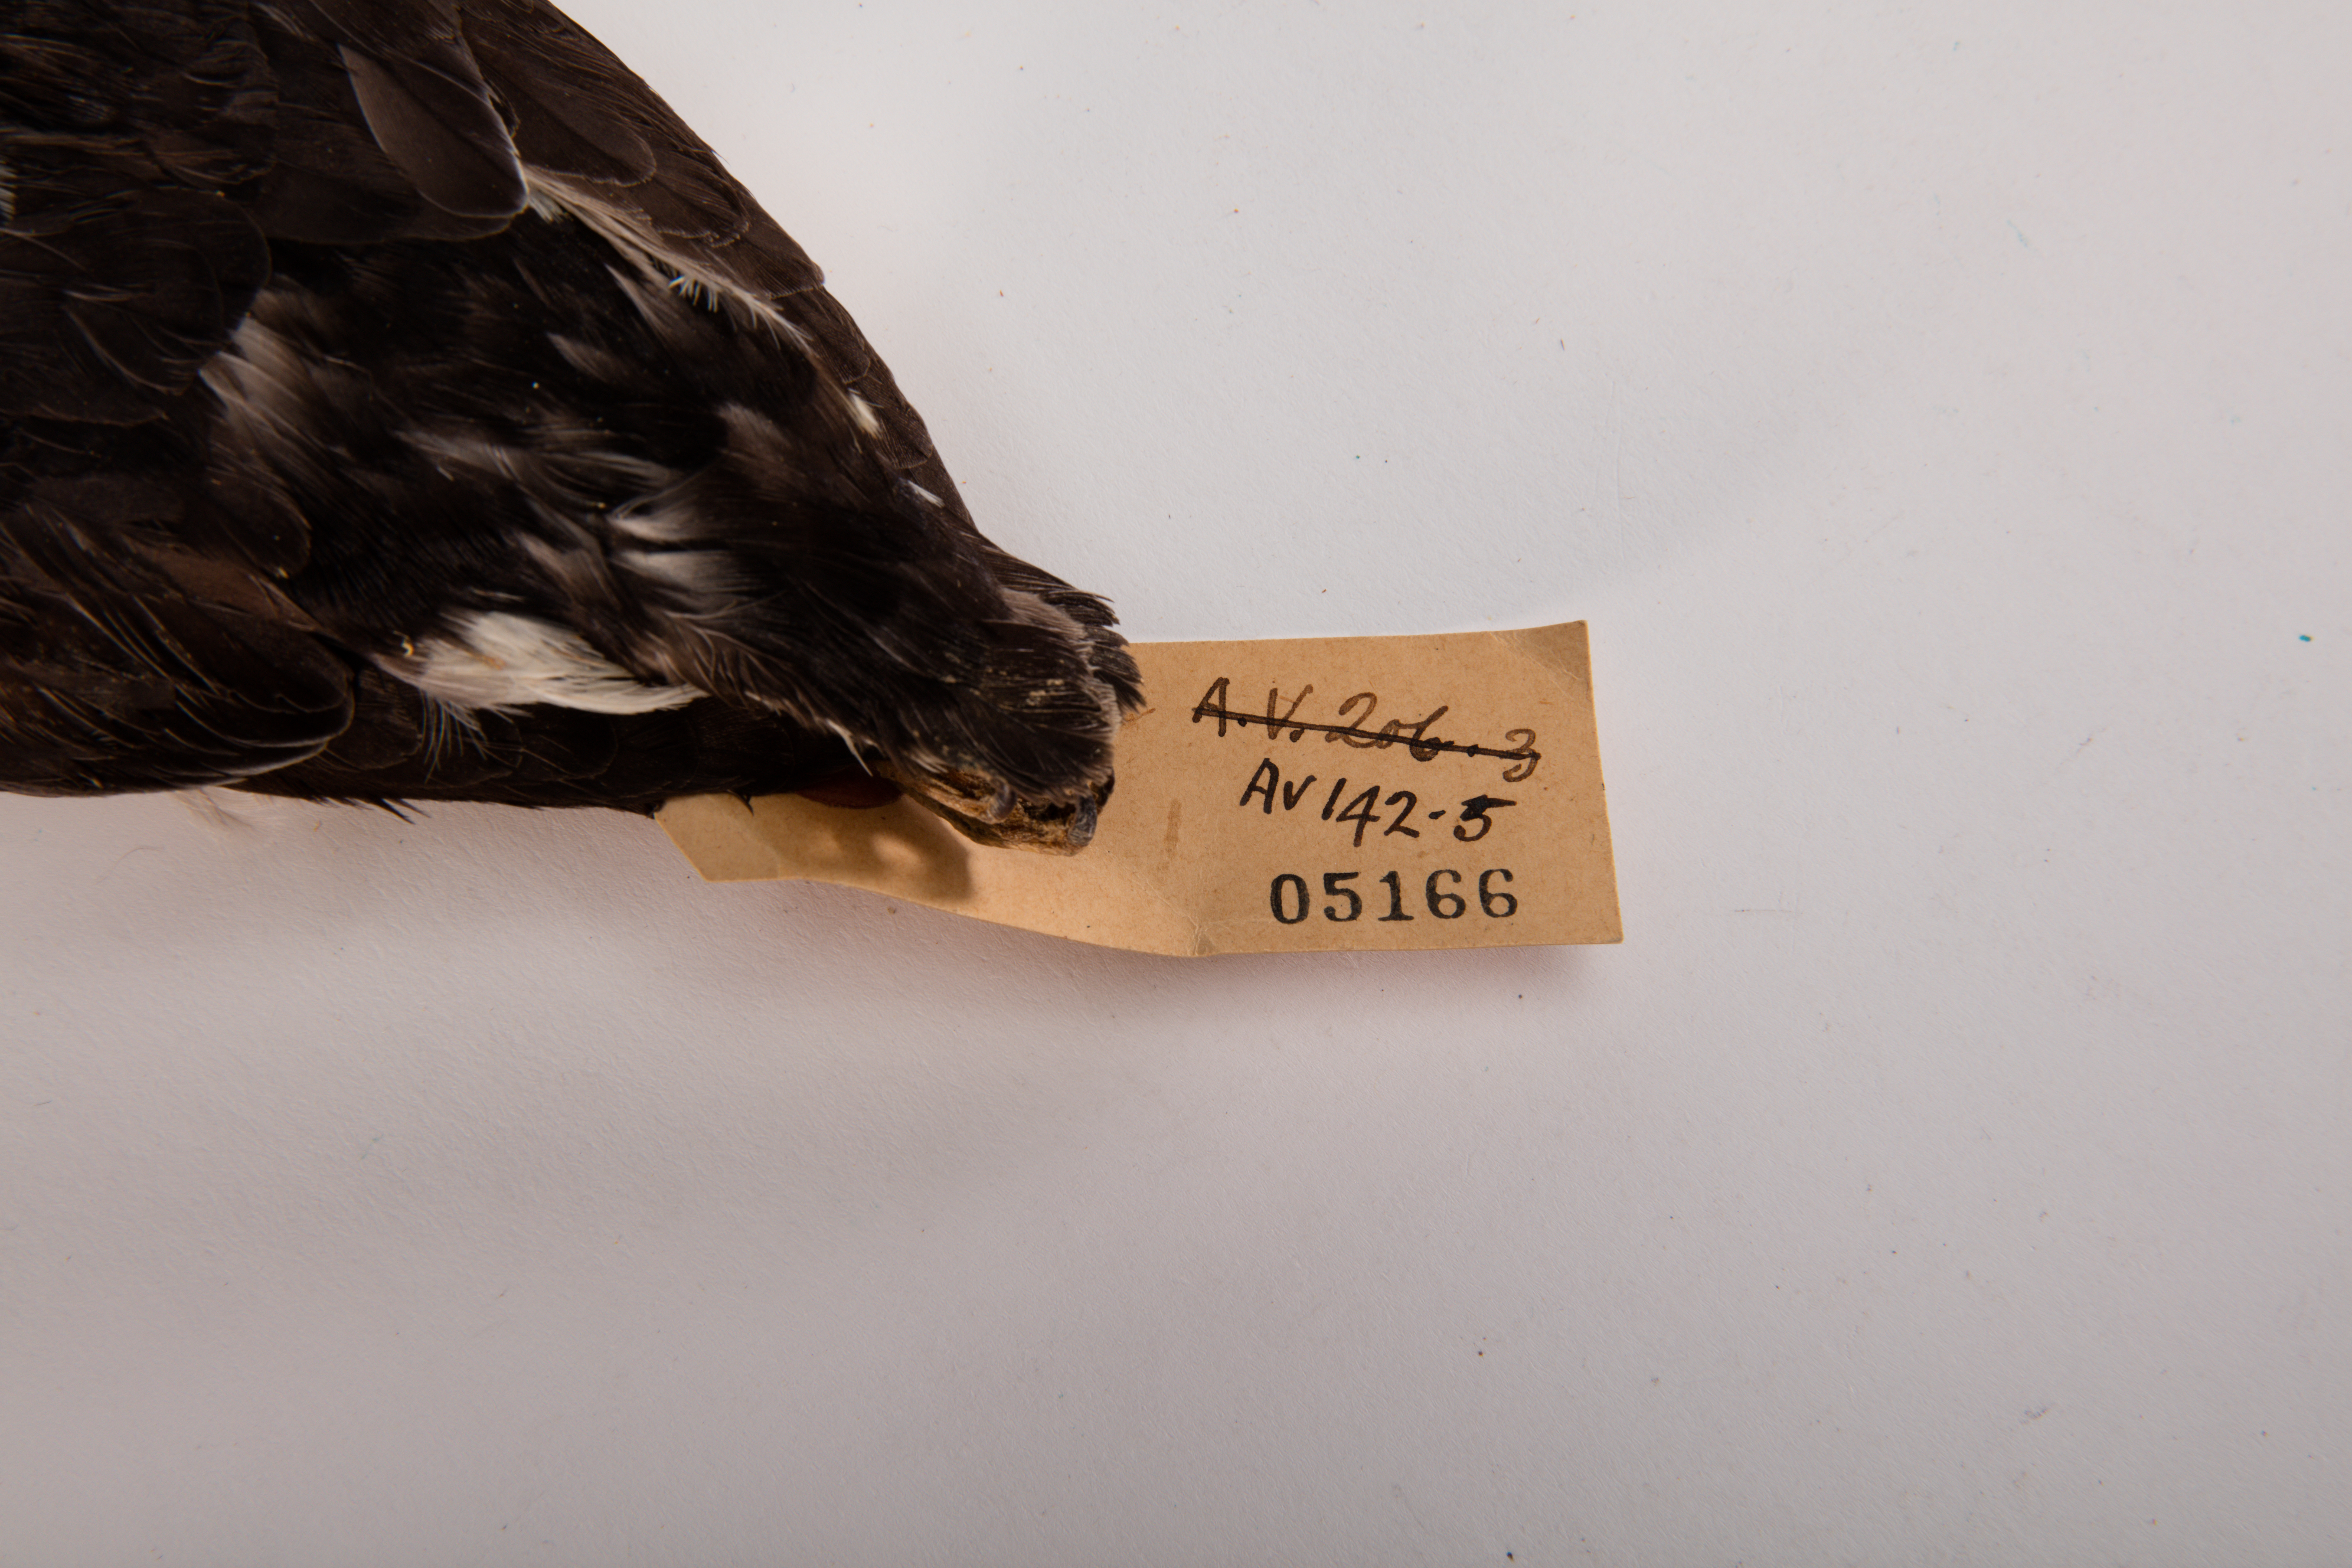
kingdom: Animalia
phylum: Chordata
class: Aves
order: Procellariiformes
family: Pelecanoididae
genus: Pelecanoides
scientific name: Pelecanoides urinatrix
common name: Common diving-petrel
